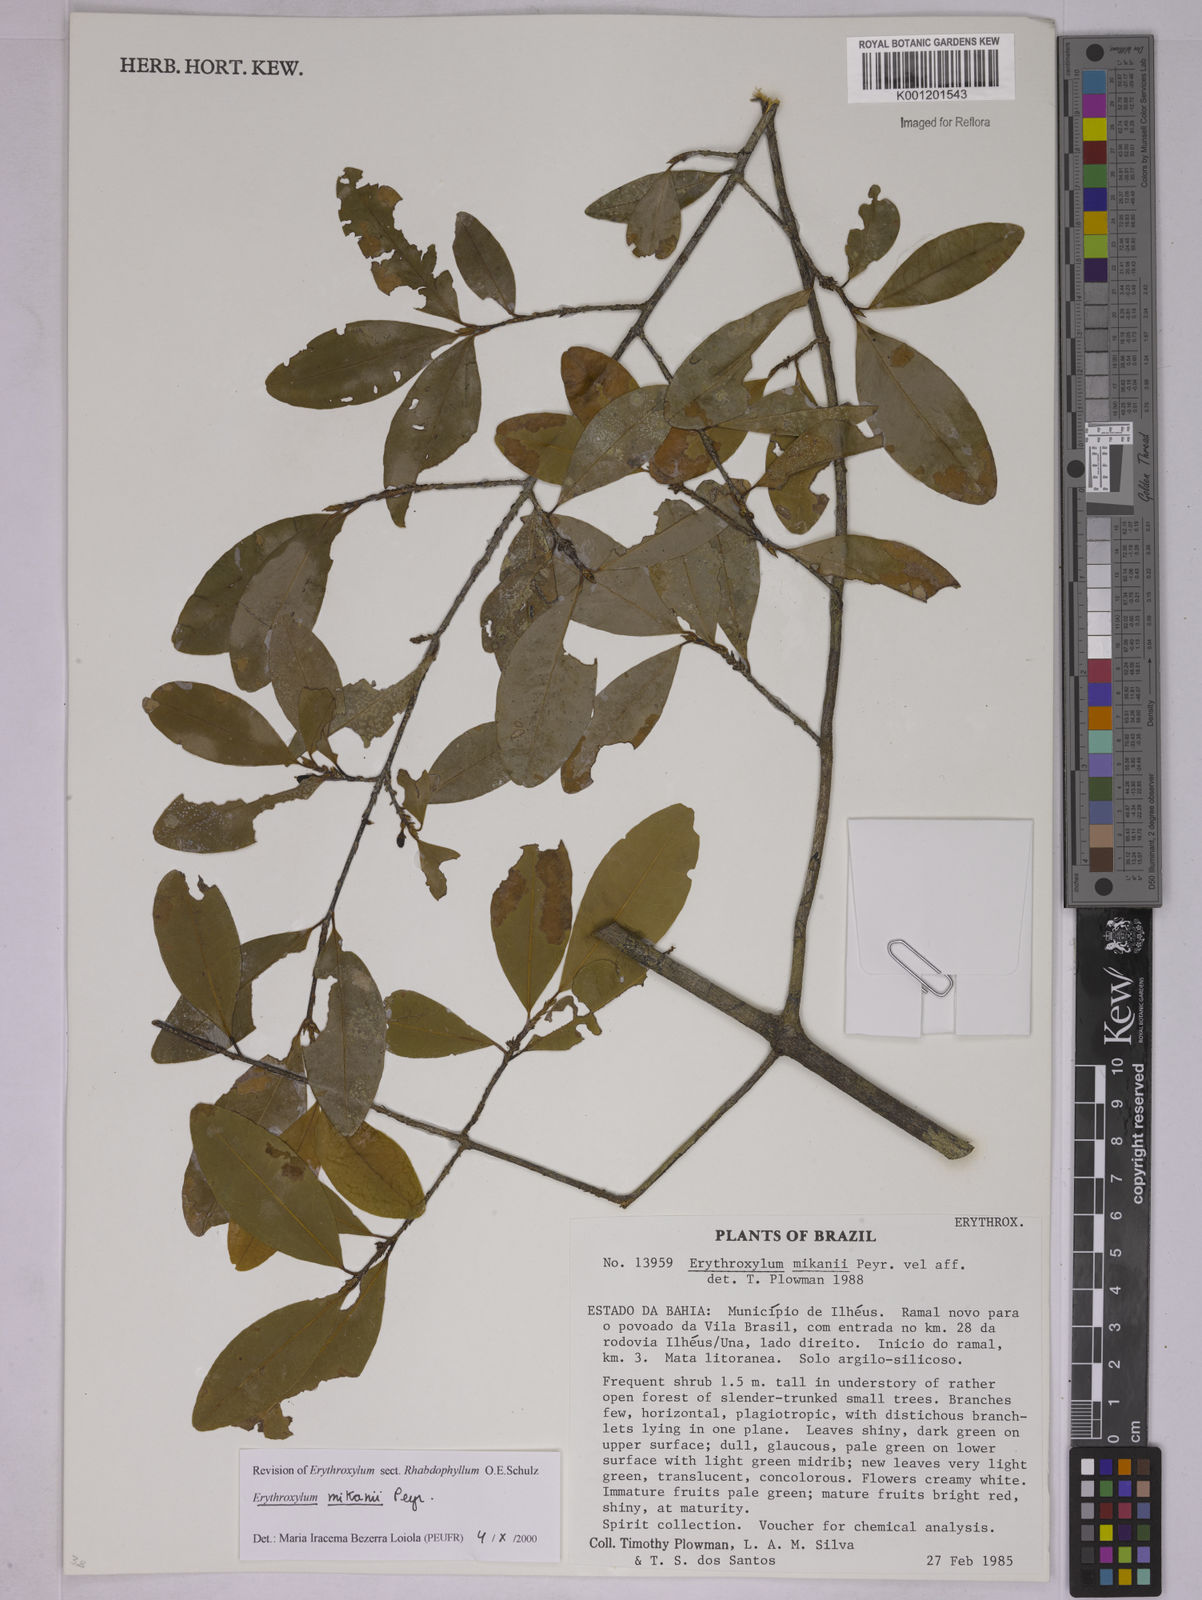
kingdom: Plantae
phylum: Tracheophyta
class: Magnoliopsida
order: Malpighiales
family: Erythroxylaceae
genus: Erythroxylum
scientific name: Erythroxylum mikanii
